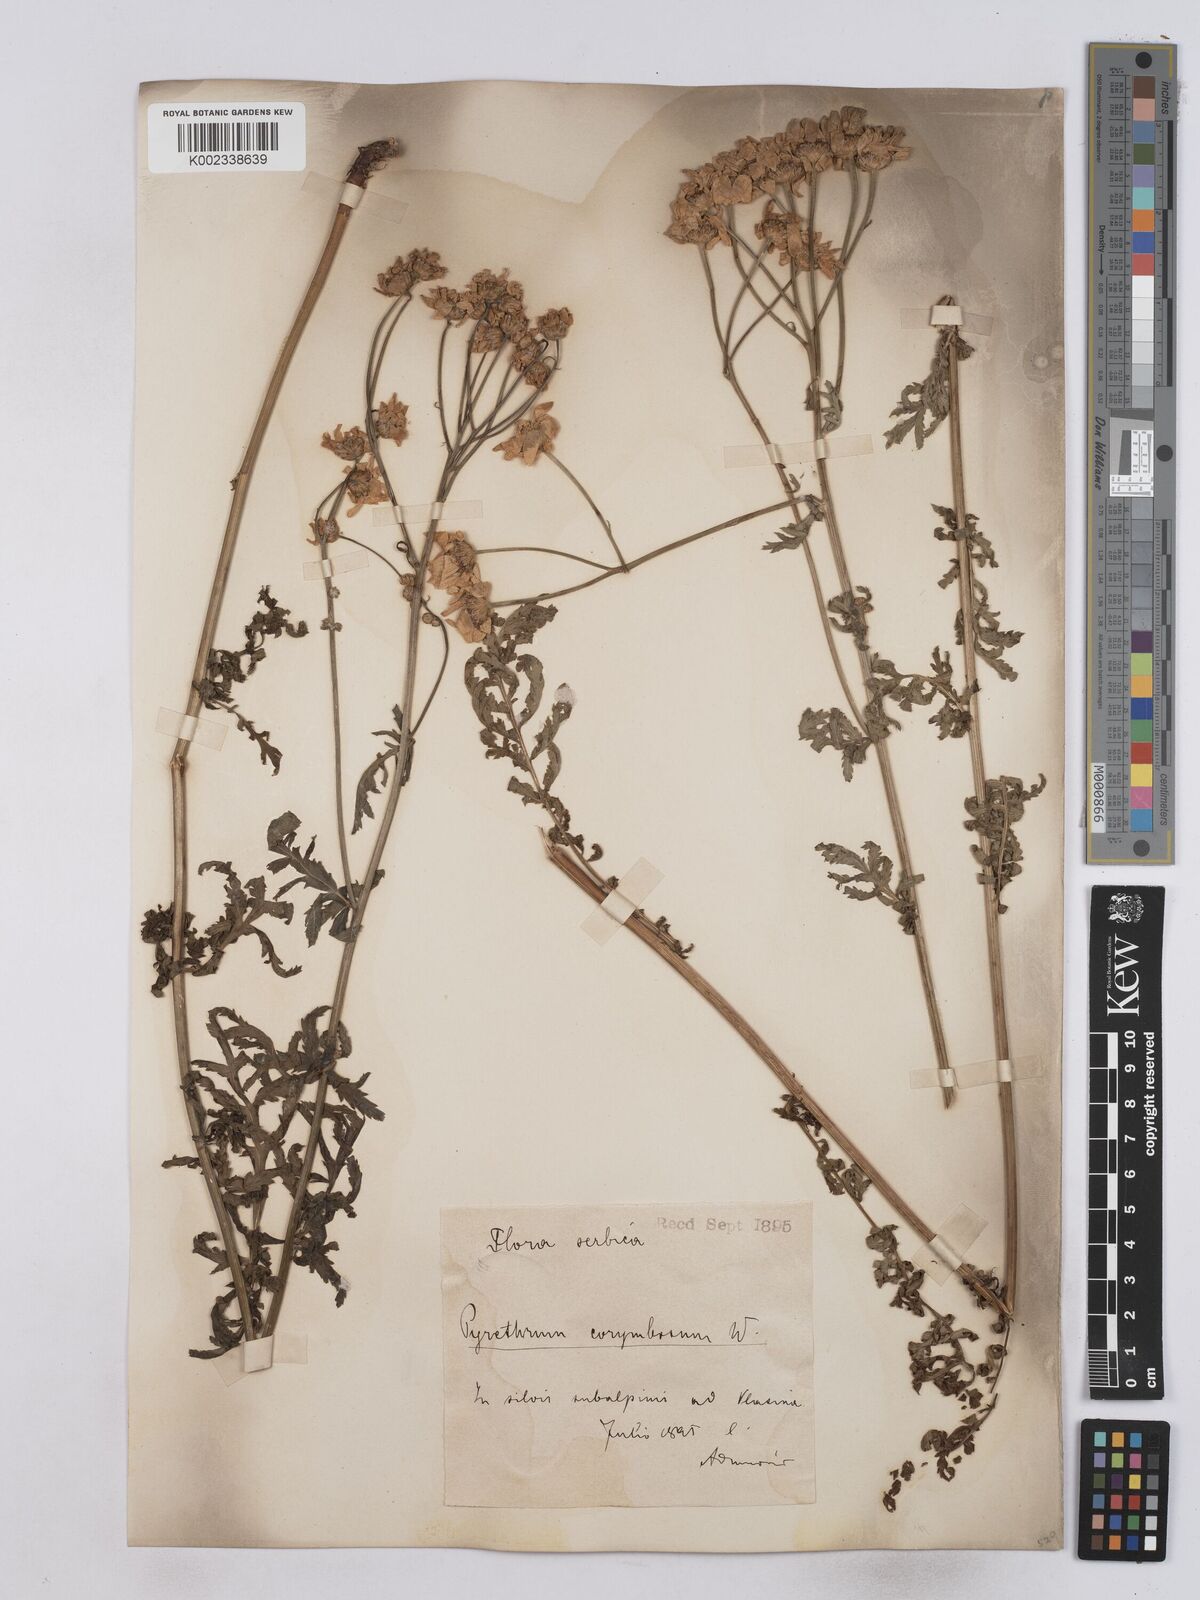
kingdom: Plantae
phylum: Tracheophyta
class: Magnoliopsida
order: Asterales
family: Asteraceae
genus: Tanacetum
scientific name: Tanacetum corymbosum
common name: Scentless feverfew
